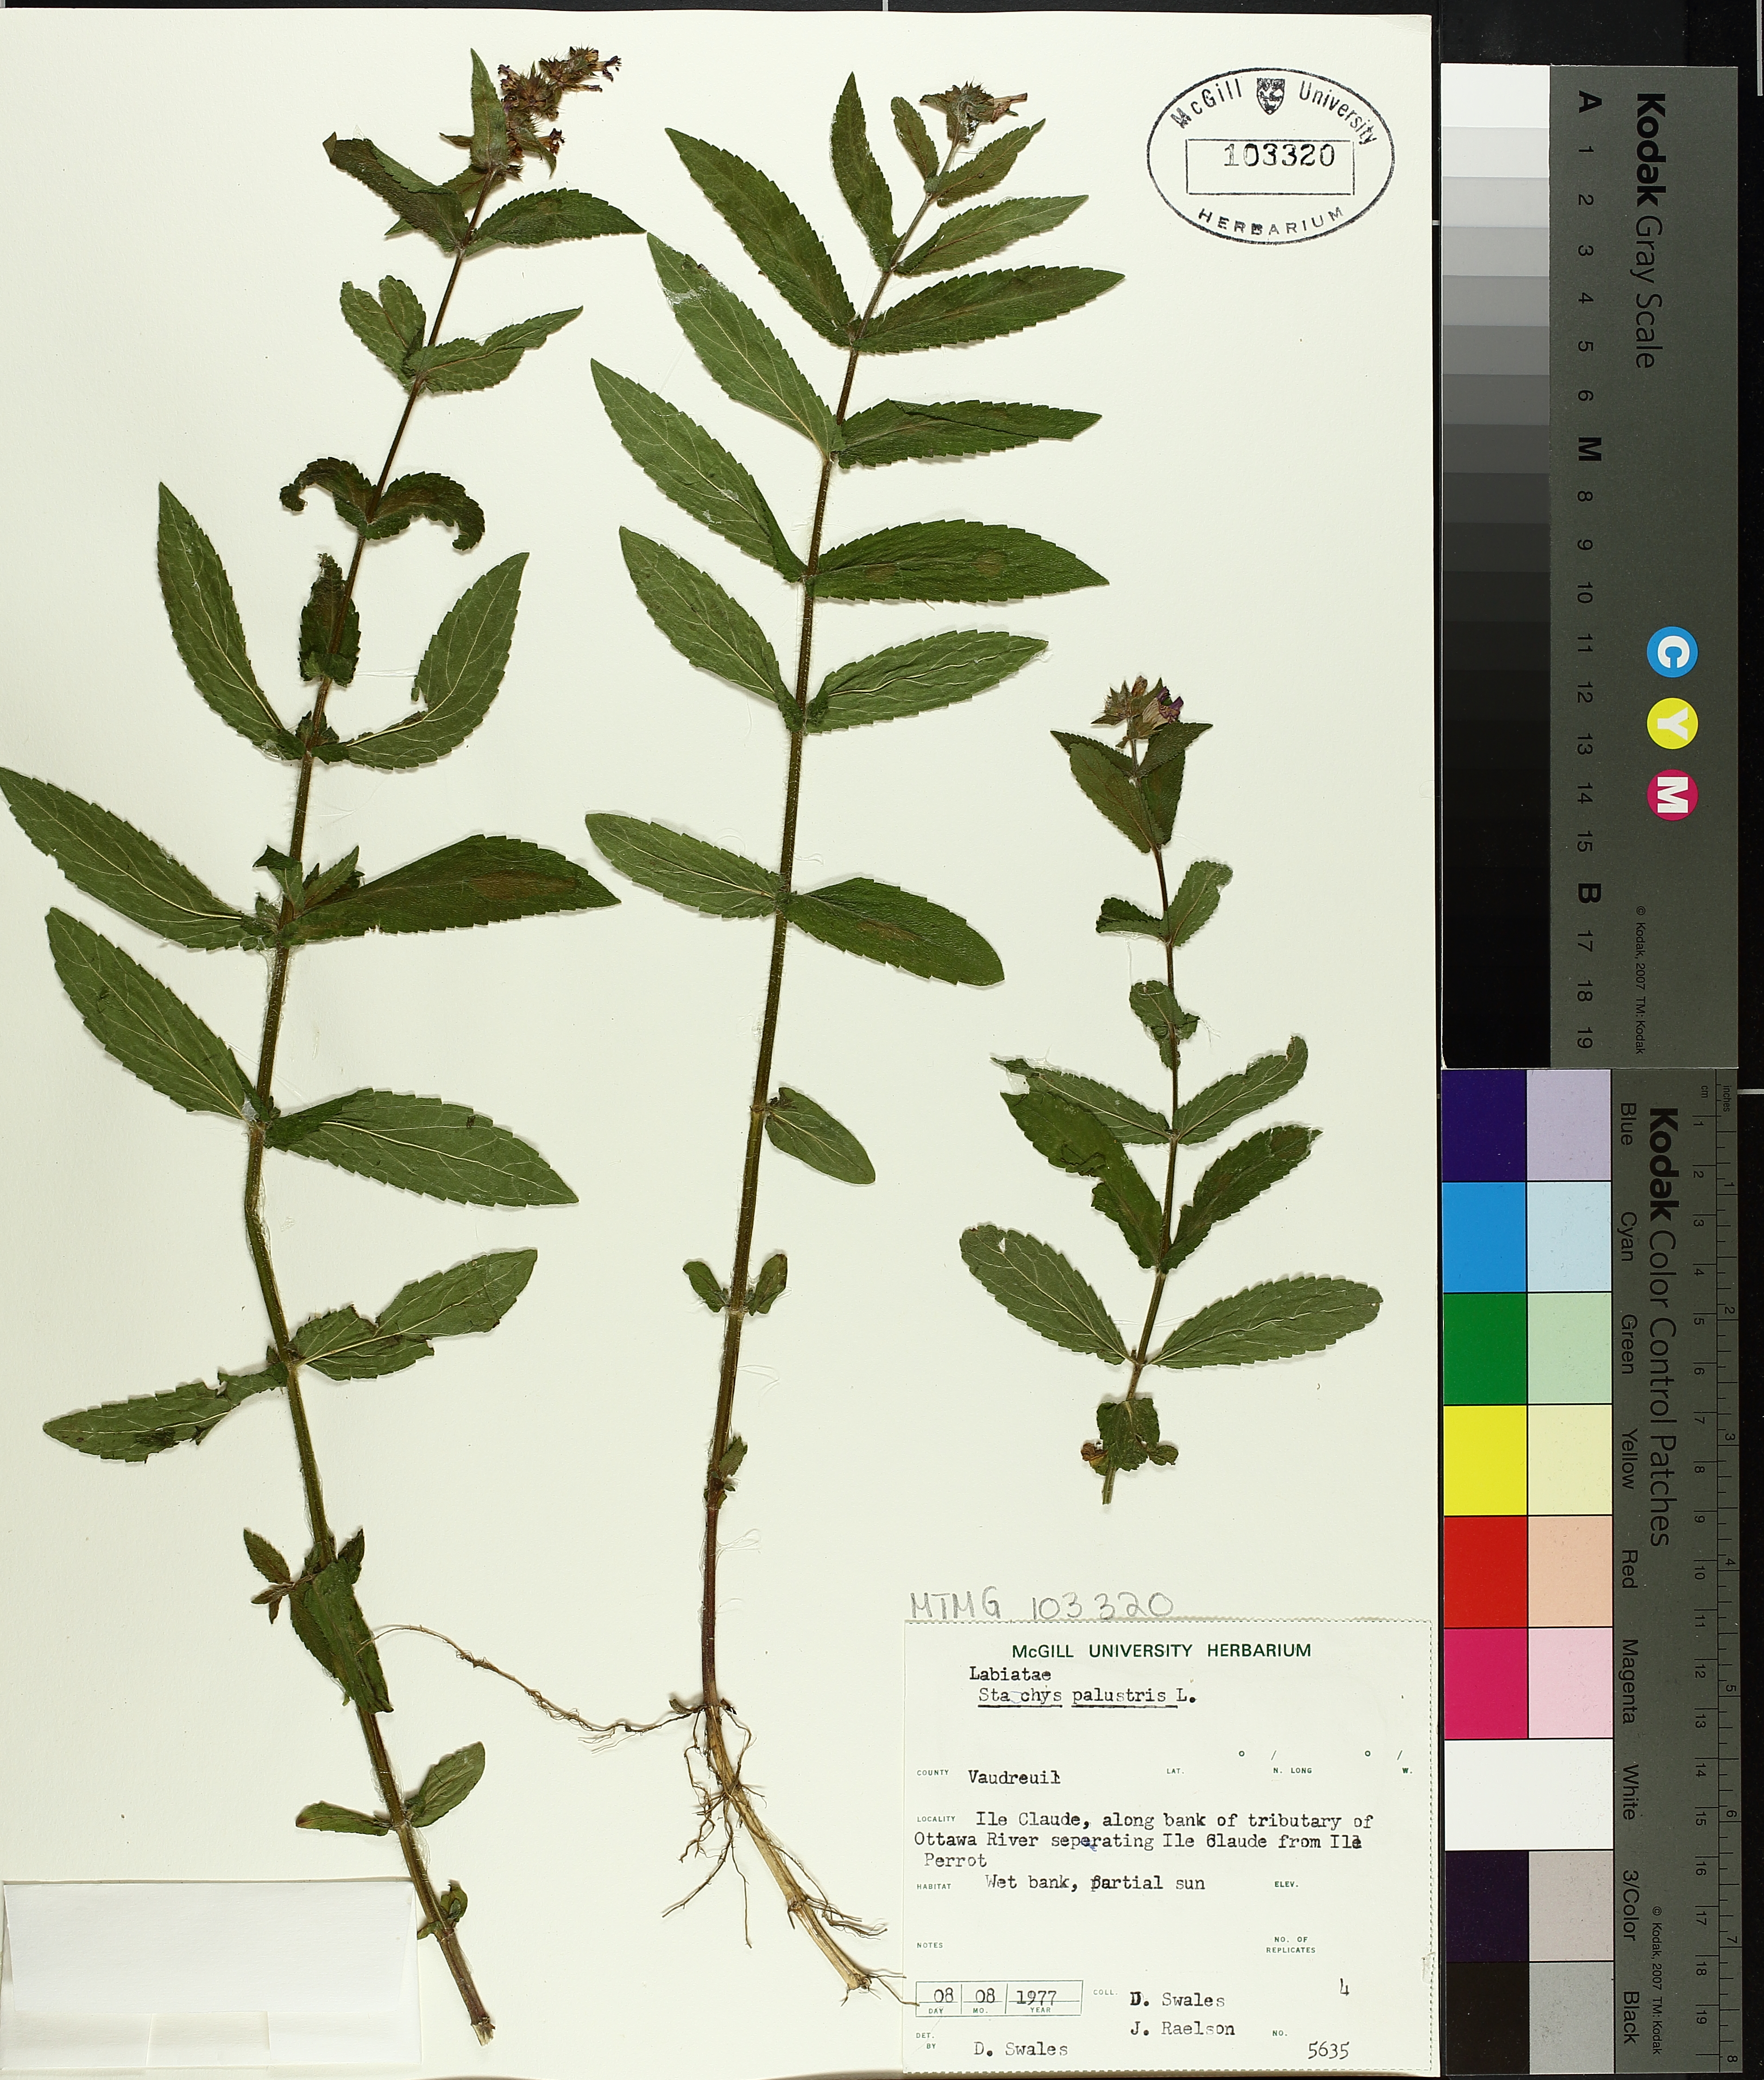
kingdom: Plantae
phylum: Tracheophyta
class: Magnoliopsida
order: Lamiales
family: Lamiaceae
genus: Stachys
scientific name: Stachys palustris
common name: Marsh woundwort
